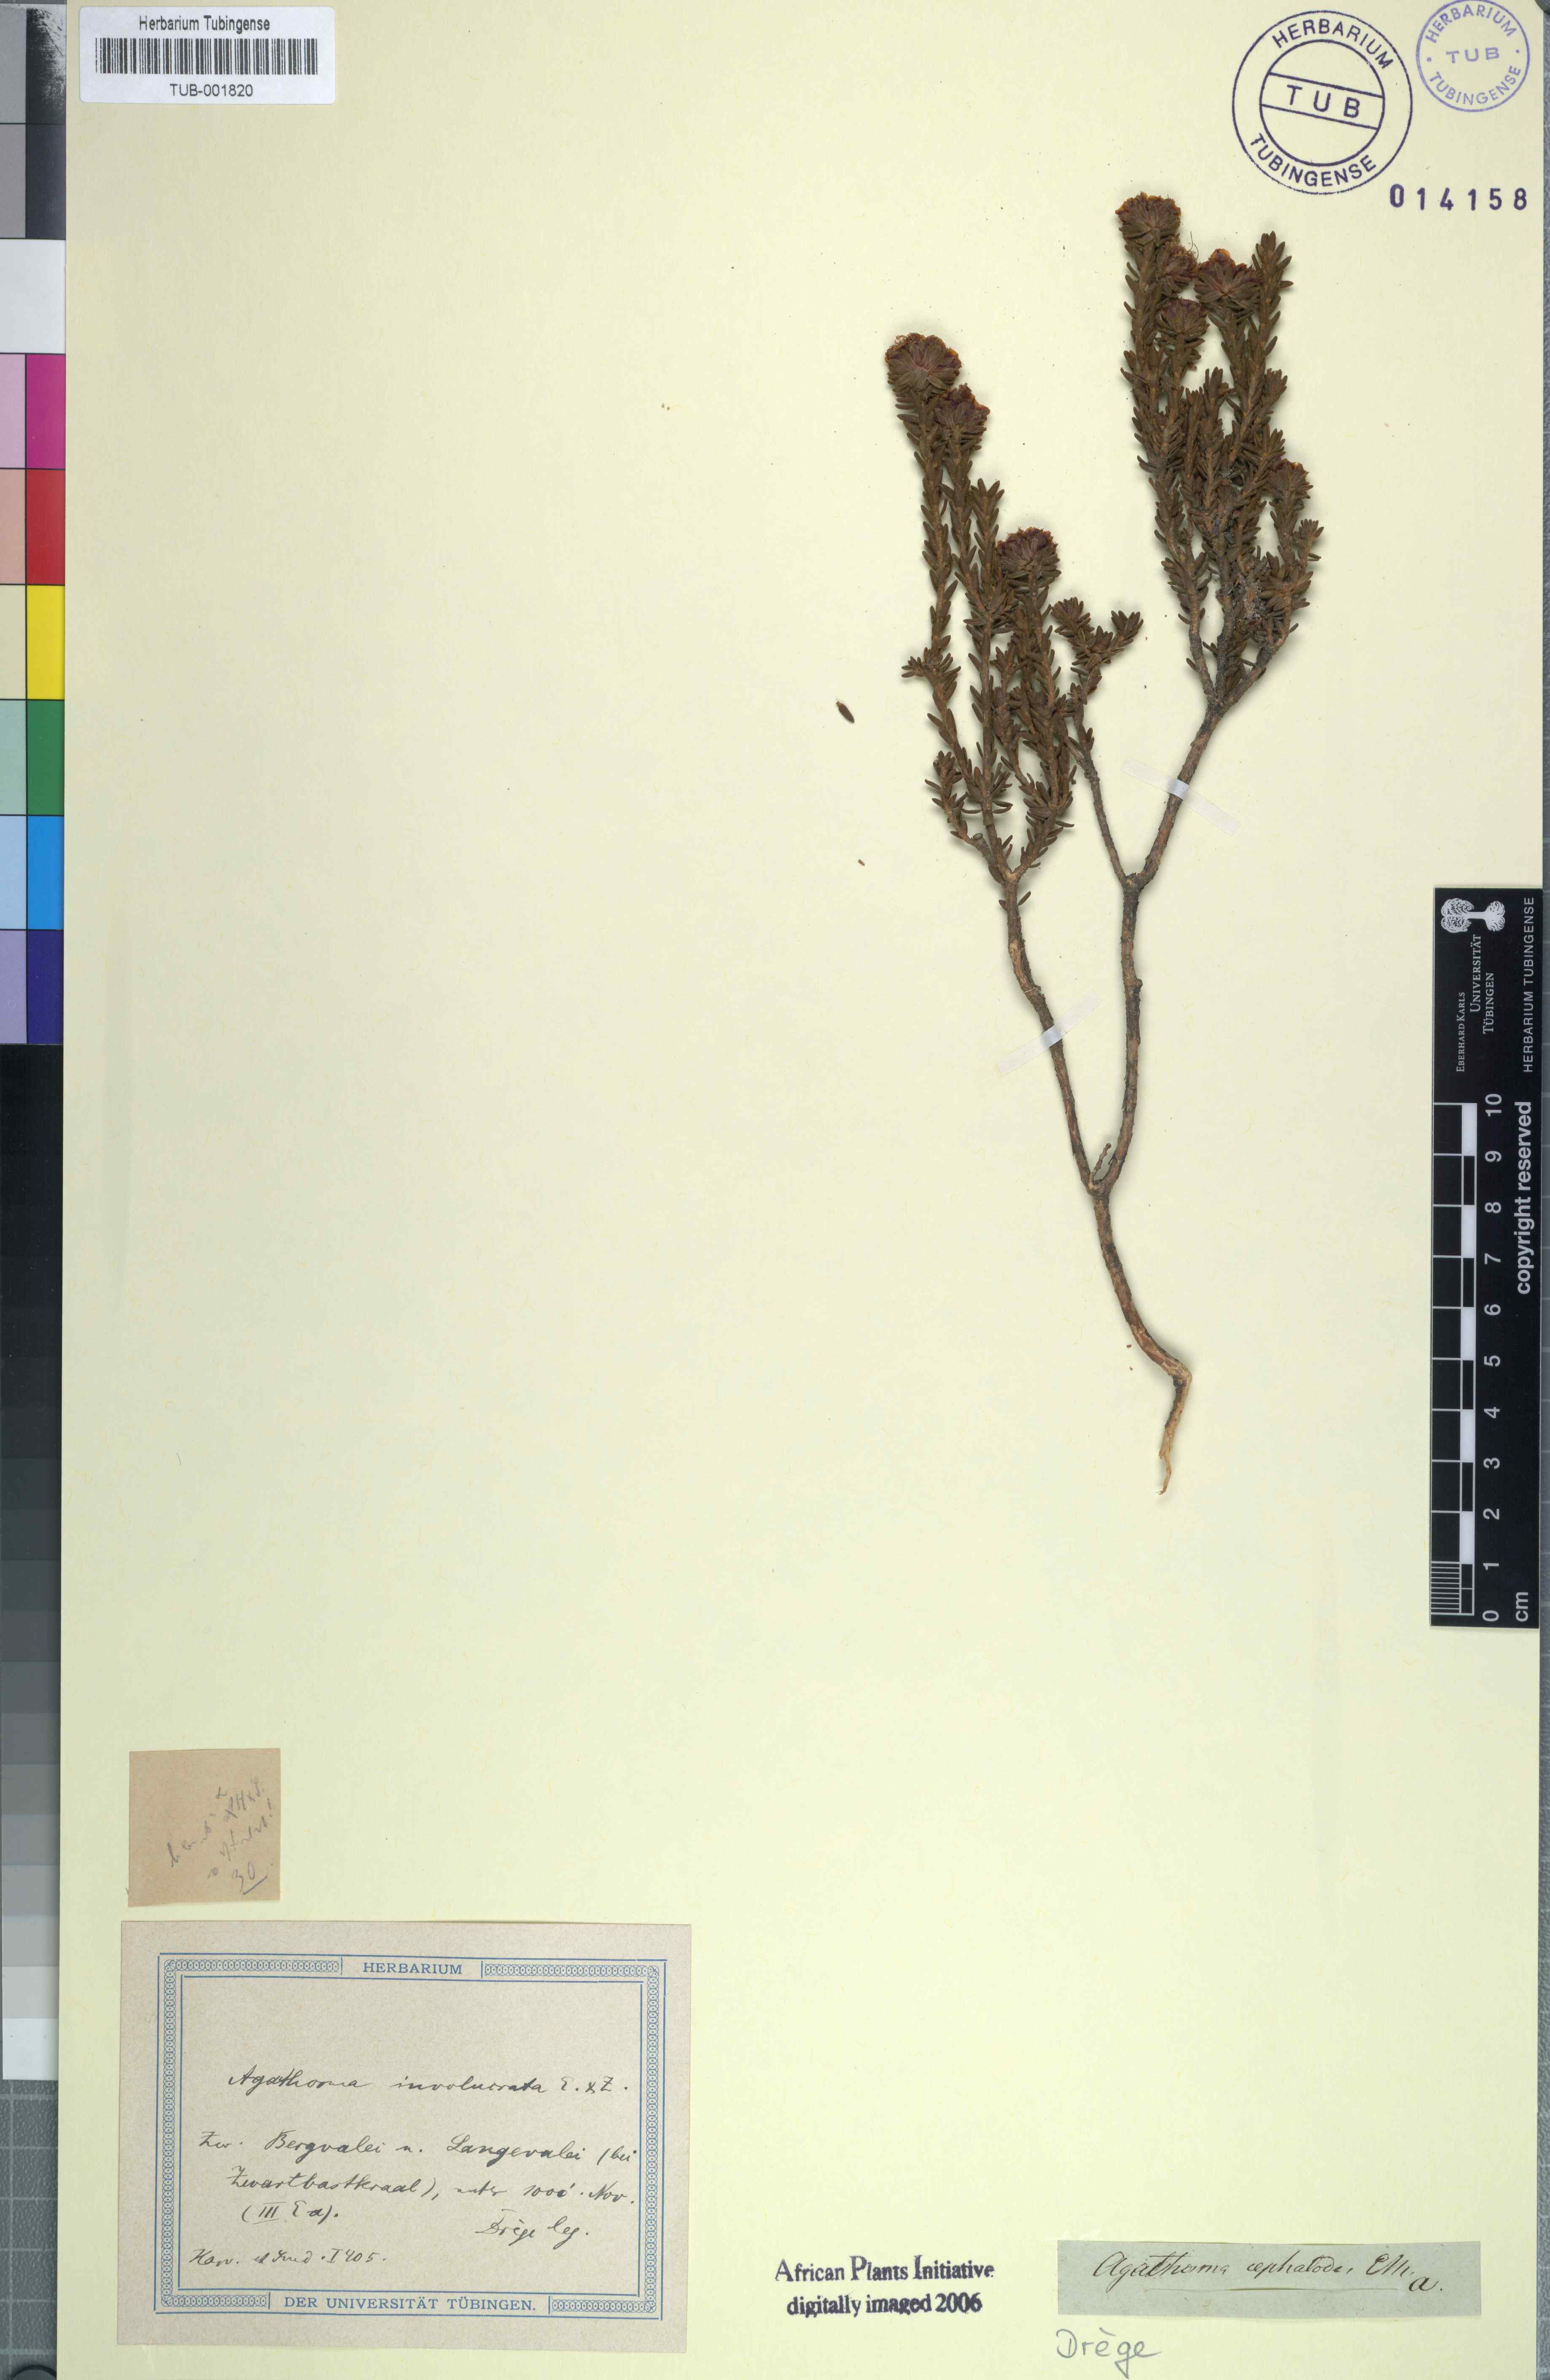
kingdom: Plantae
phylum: Tracheophyta
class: Magnoliopsida
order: Sapindales
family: Rutaceae
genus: Agathosma
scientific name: Agathosma involucrata
